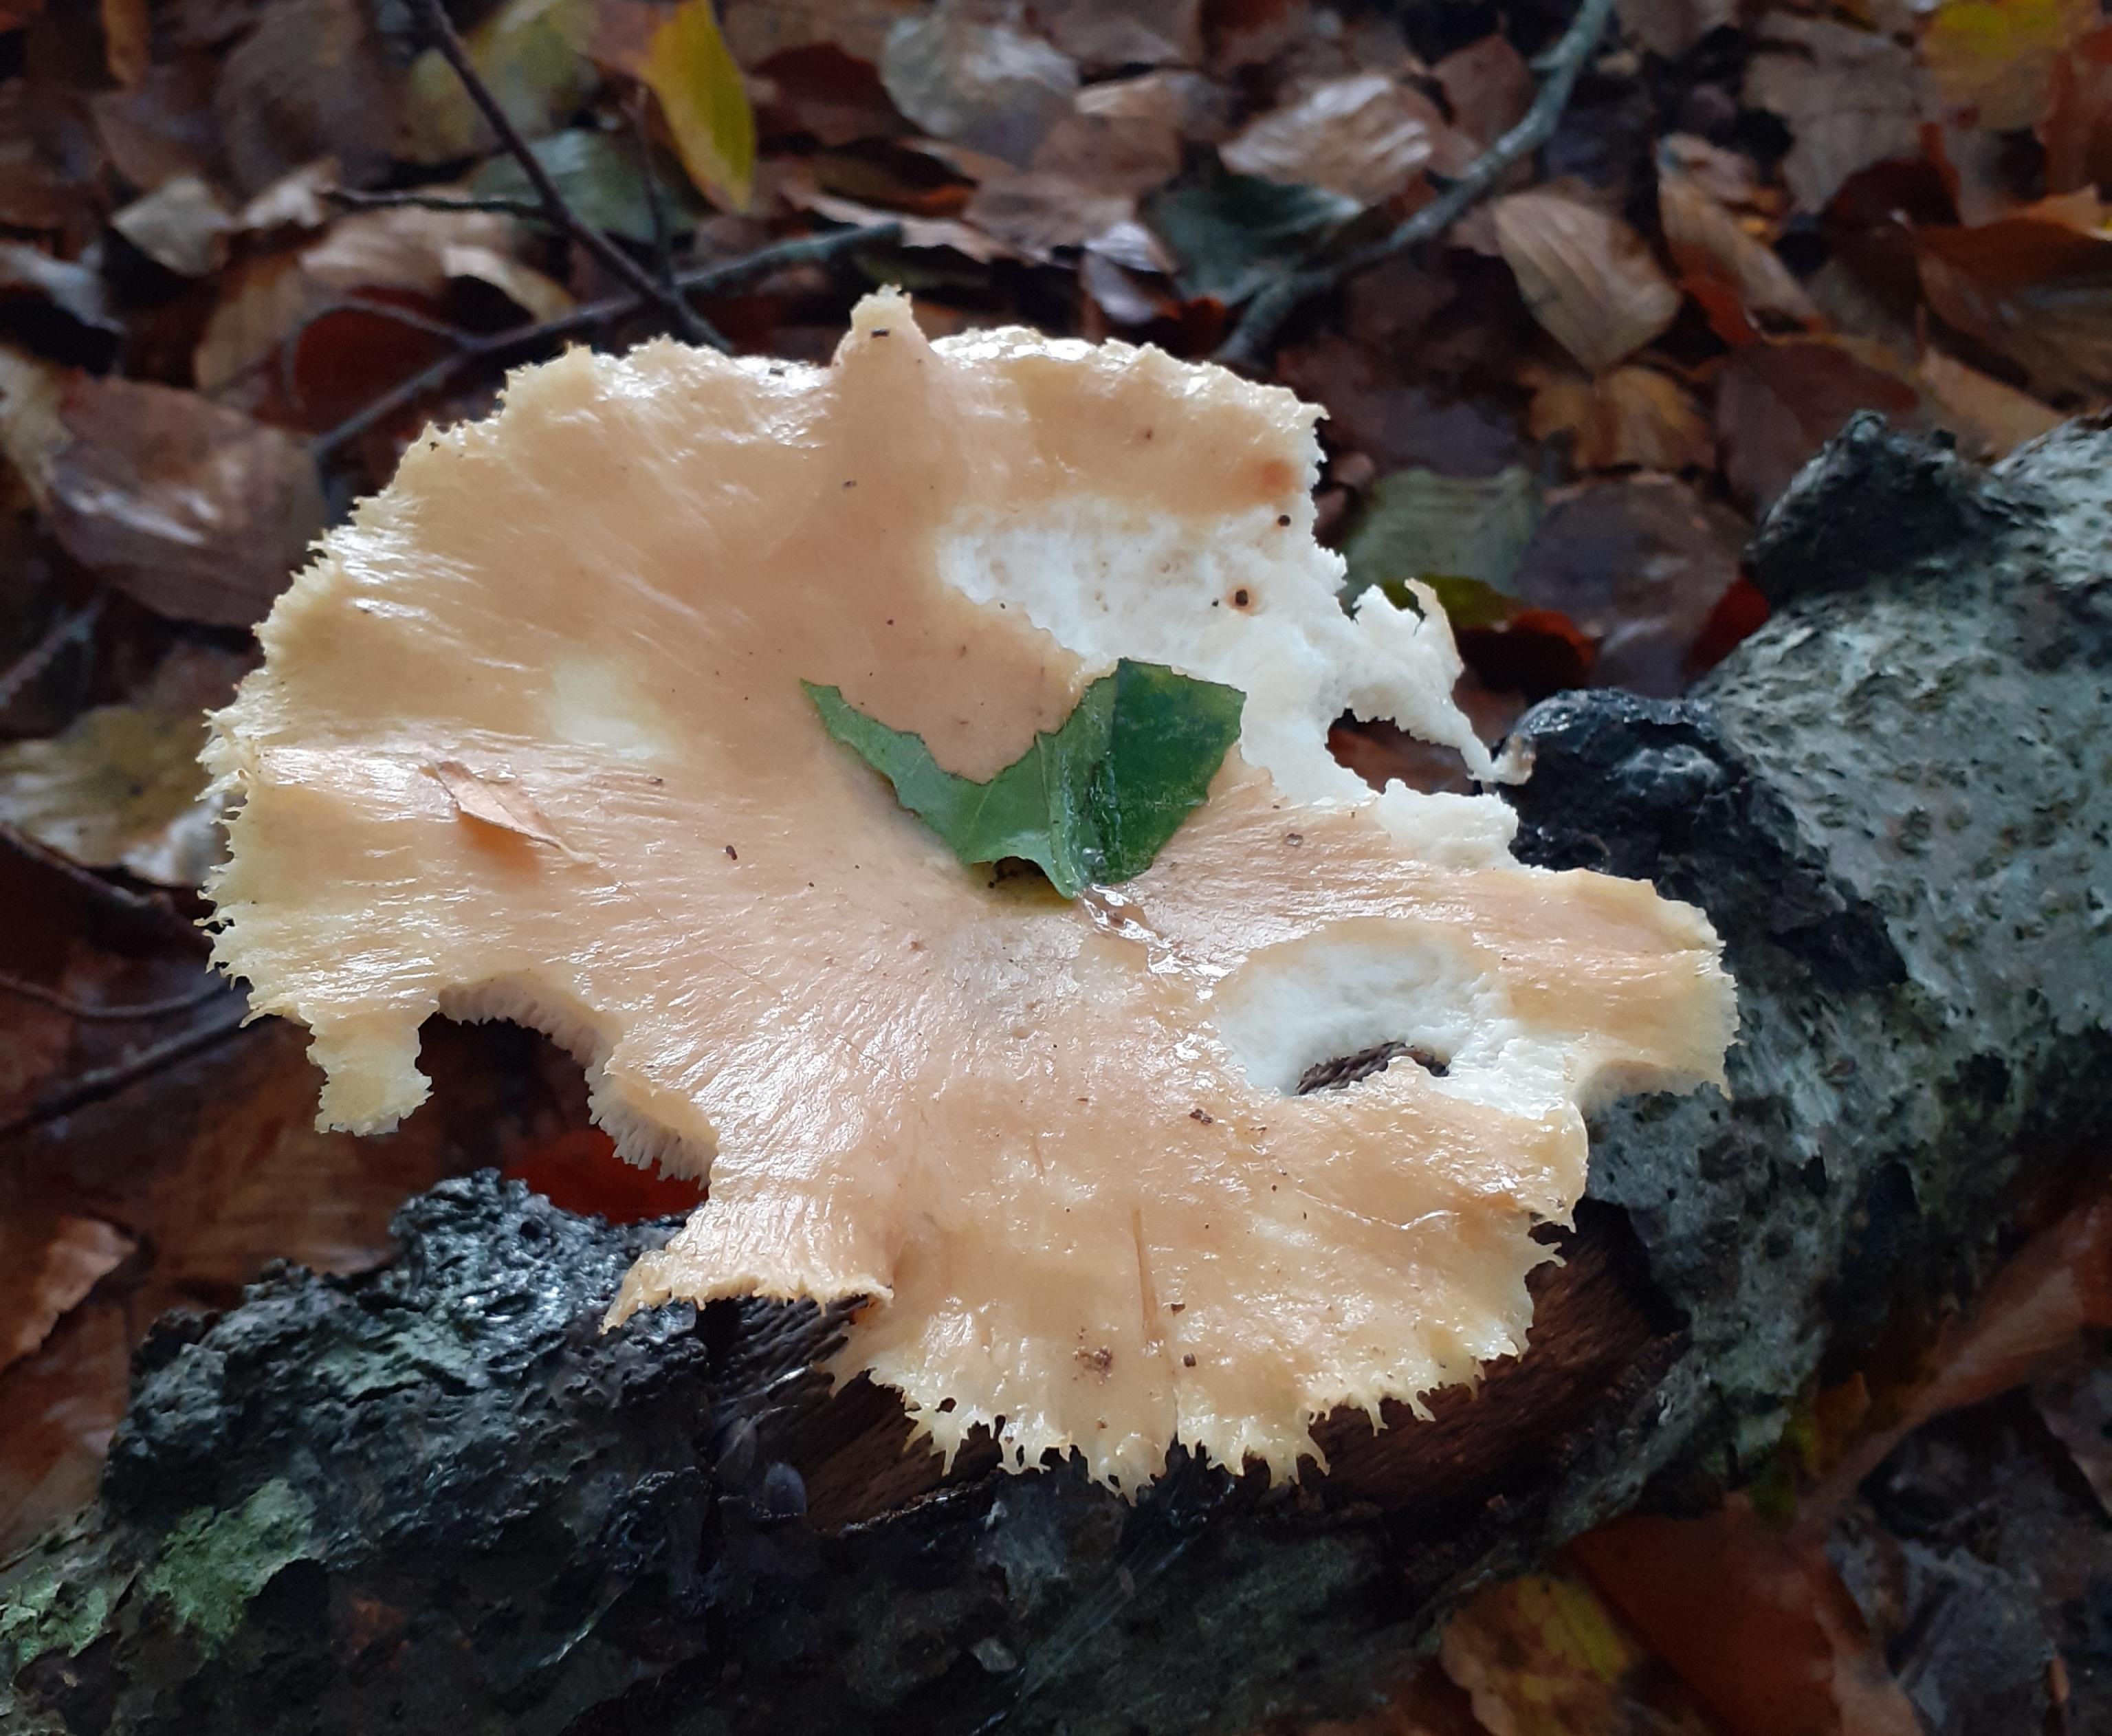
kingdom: Fungi
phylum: Basidiomycota
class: Agaricomycetes
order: Polyporales
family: Polyporaceae
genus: Polyporus
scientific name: Polyporus tuberaster
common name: knoldet stilkporesvamp
